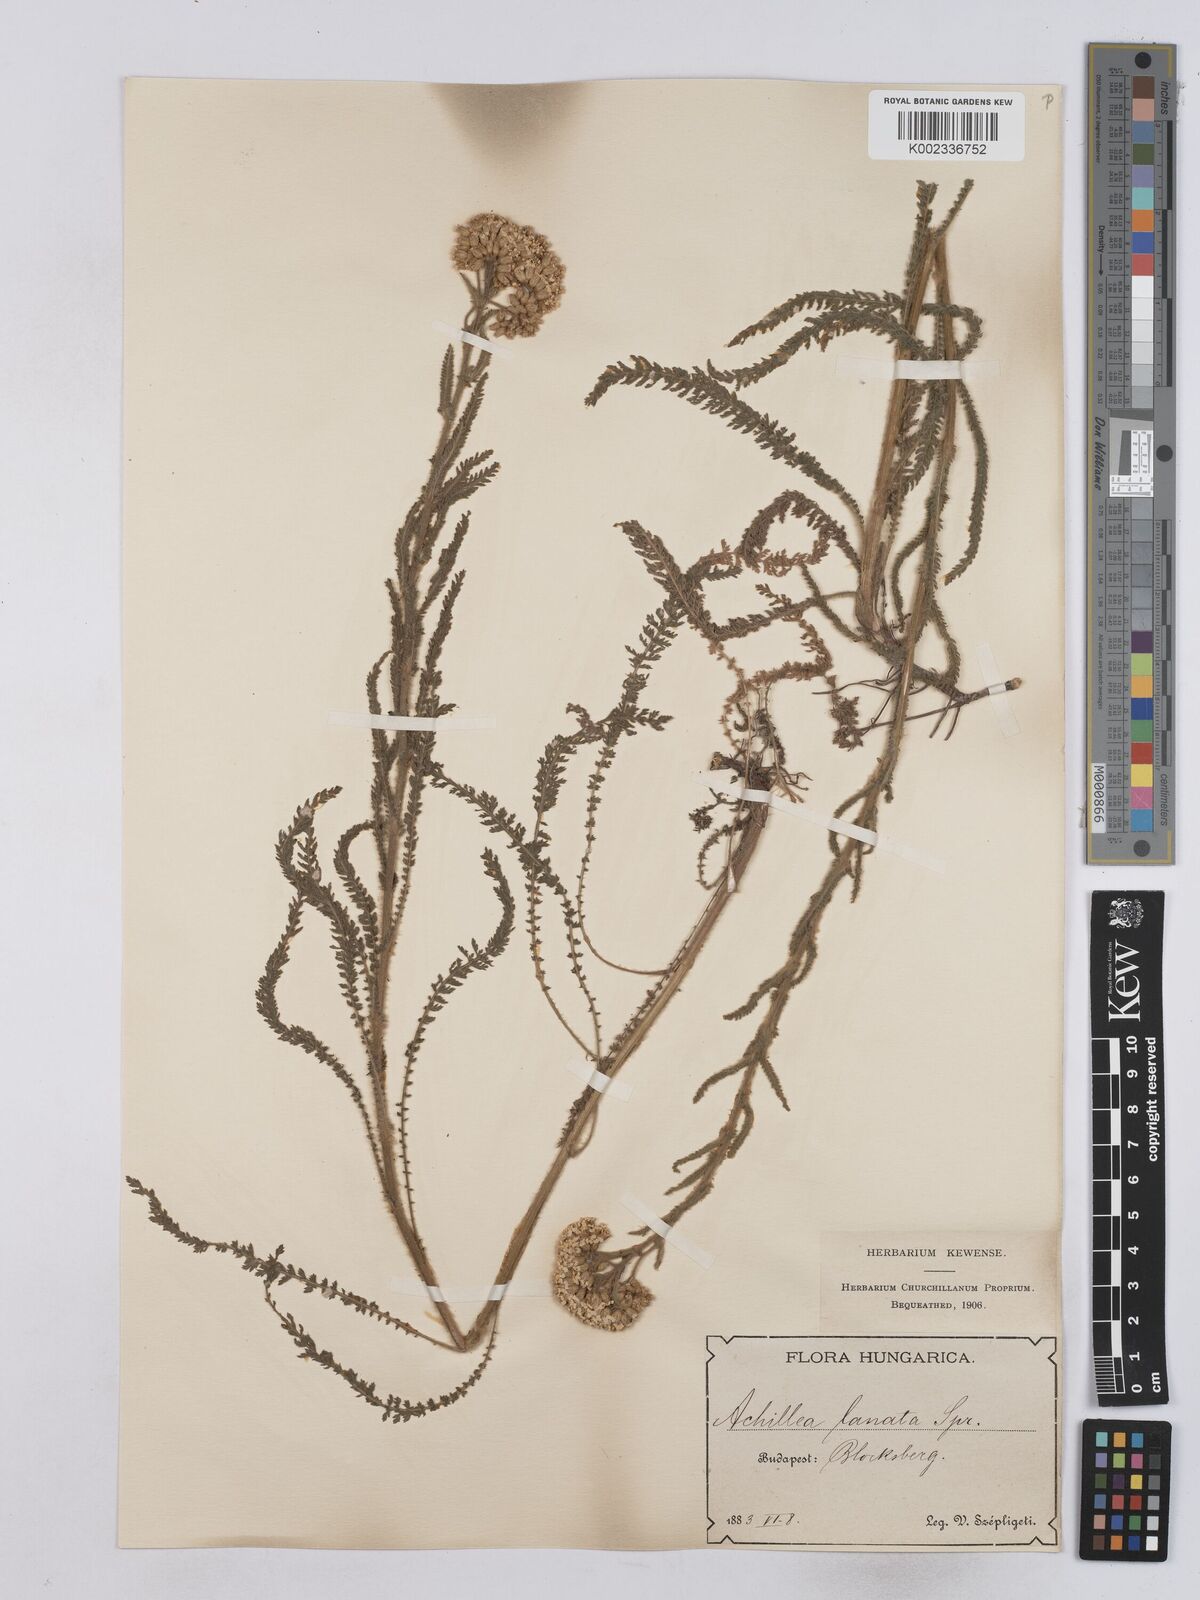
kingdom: Plantae
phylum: Tracheophyta
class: Magnoliopsida
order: Asterales
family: Asteraceae
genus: Achillea
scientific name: Achillea setacea
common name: Bristly yarrow
